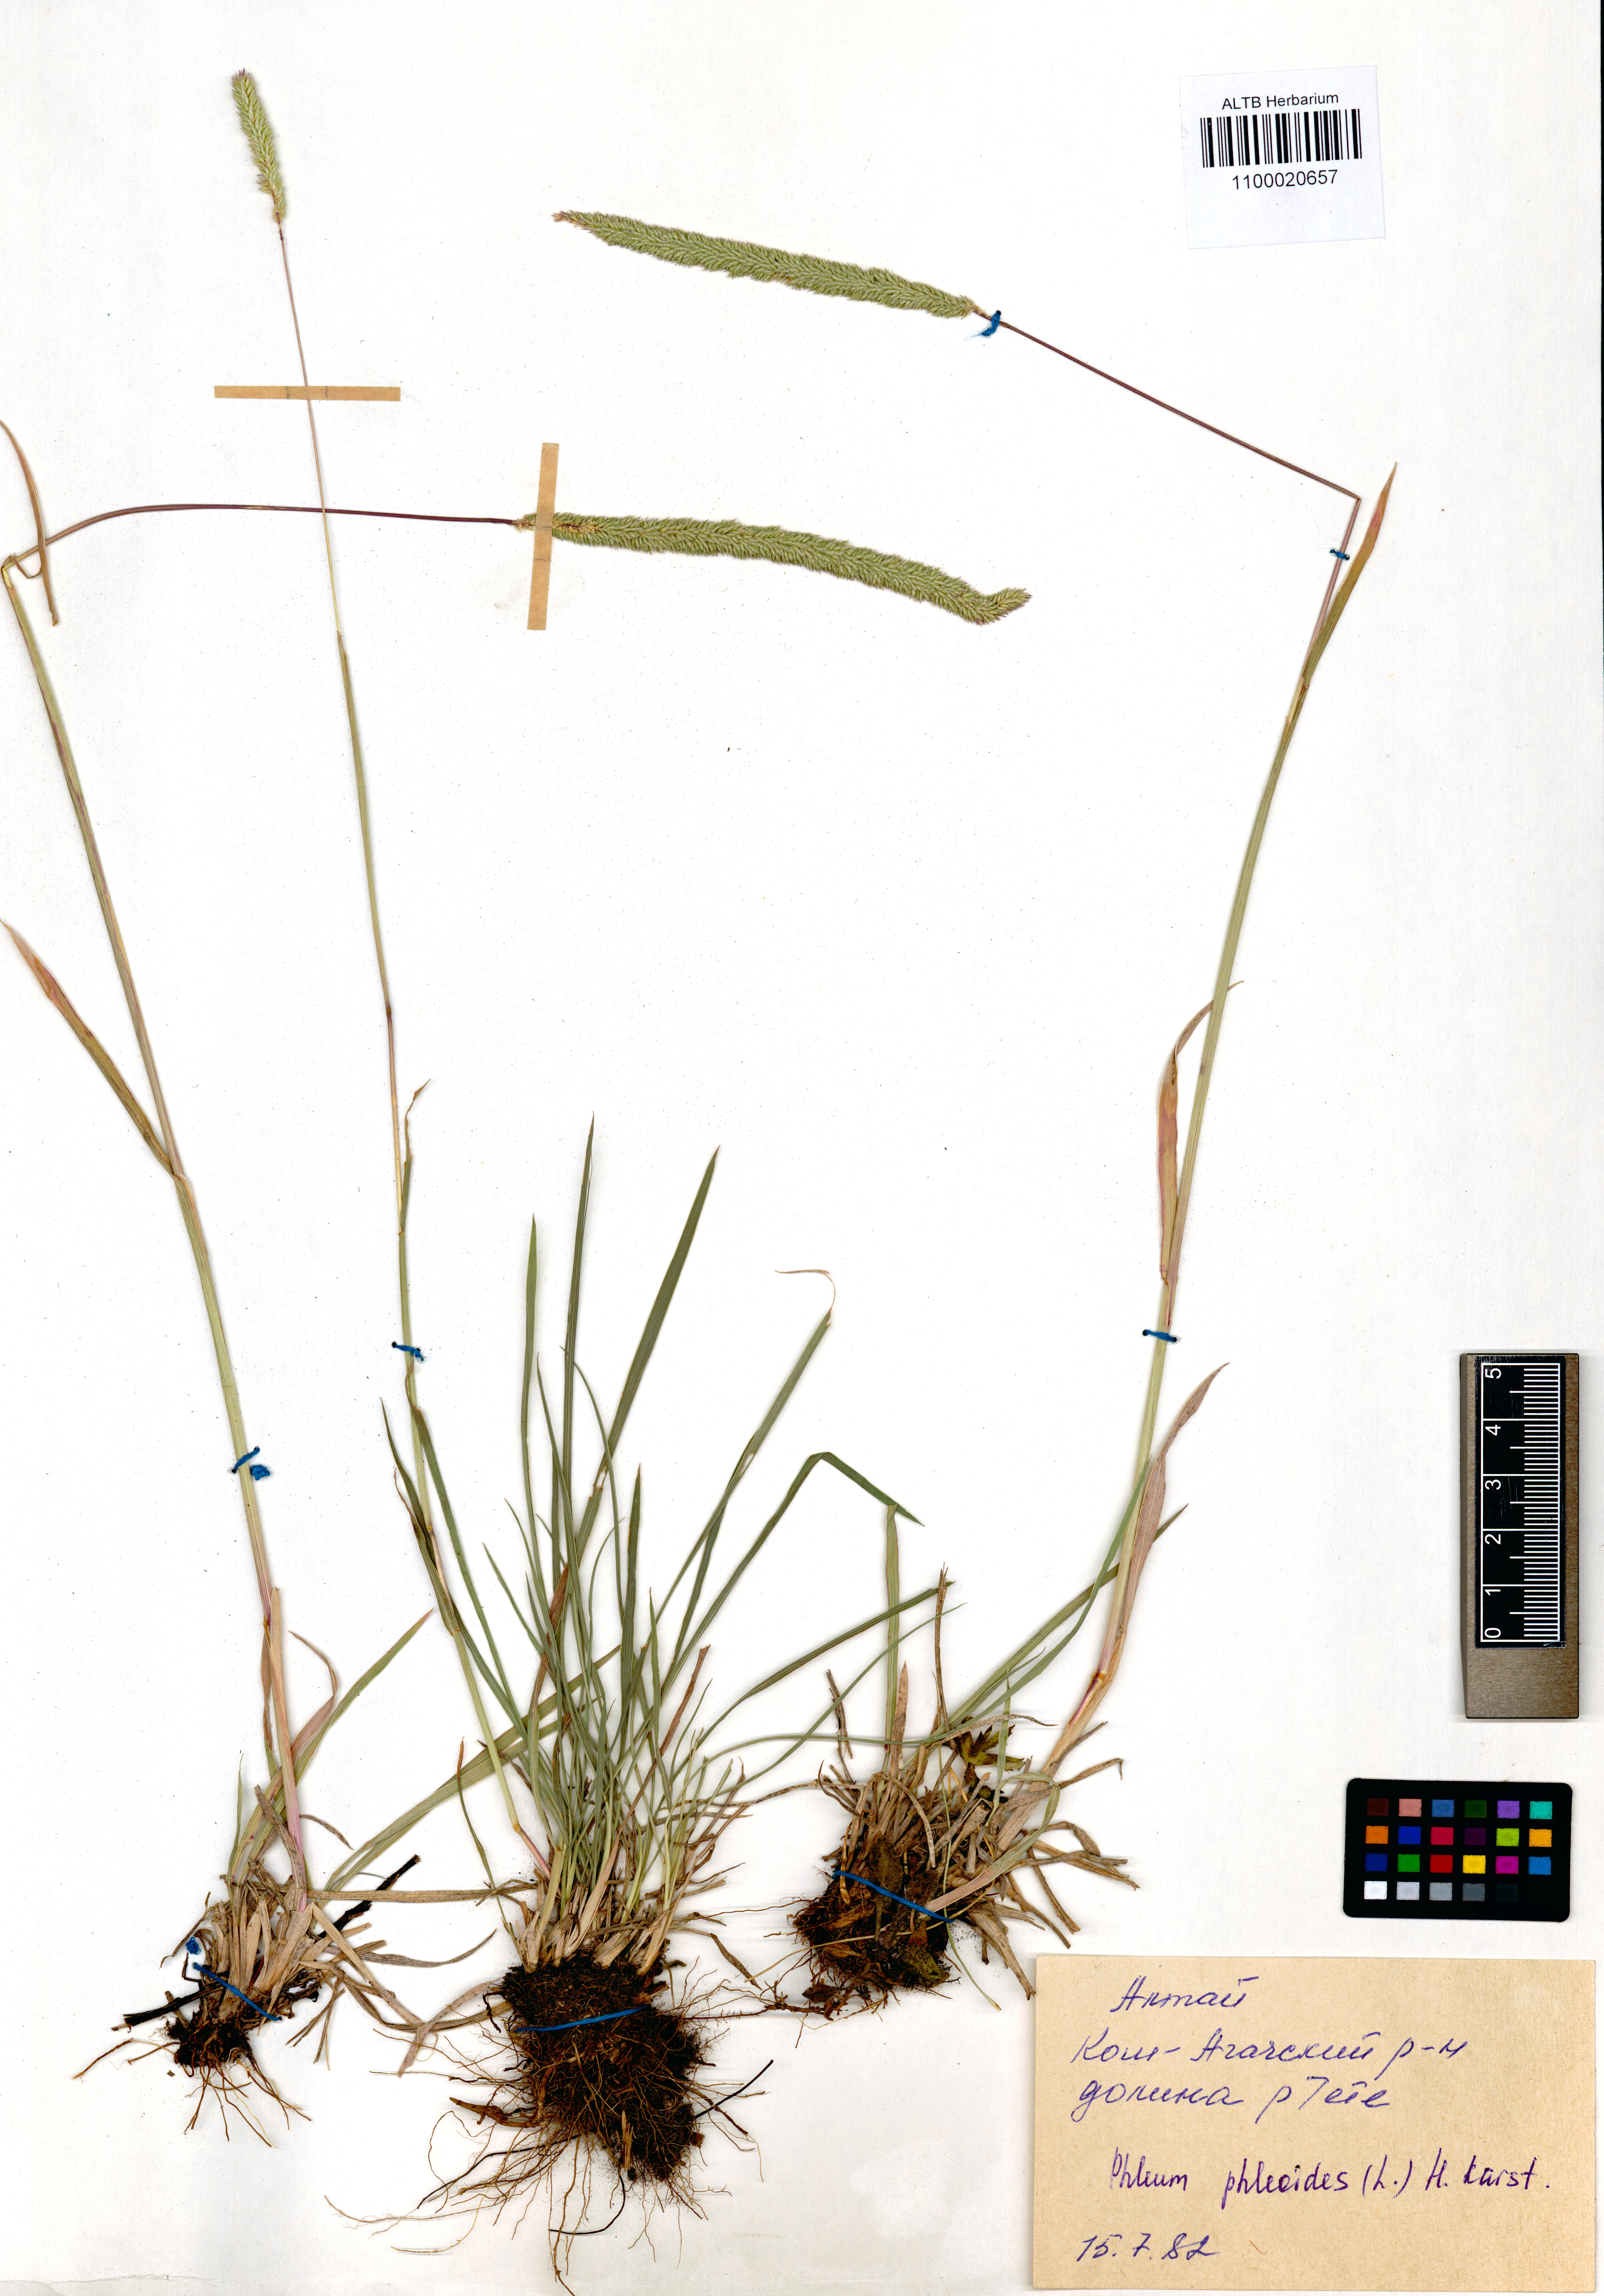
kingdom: Plantae
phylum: Tracheophyta
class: Liliopsida
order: Poales
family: Poaceae
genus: Phleum
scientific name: Phleum phleoides
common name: Purple-stem cat's-tail
